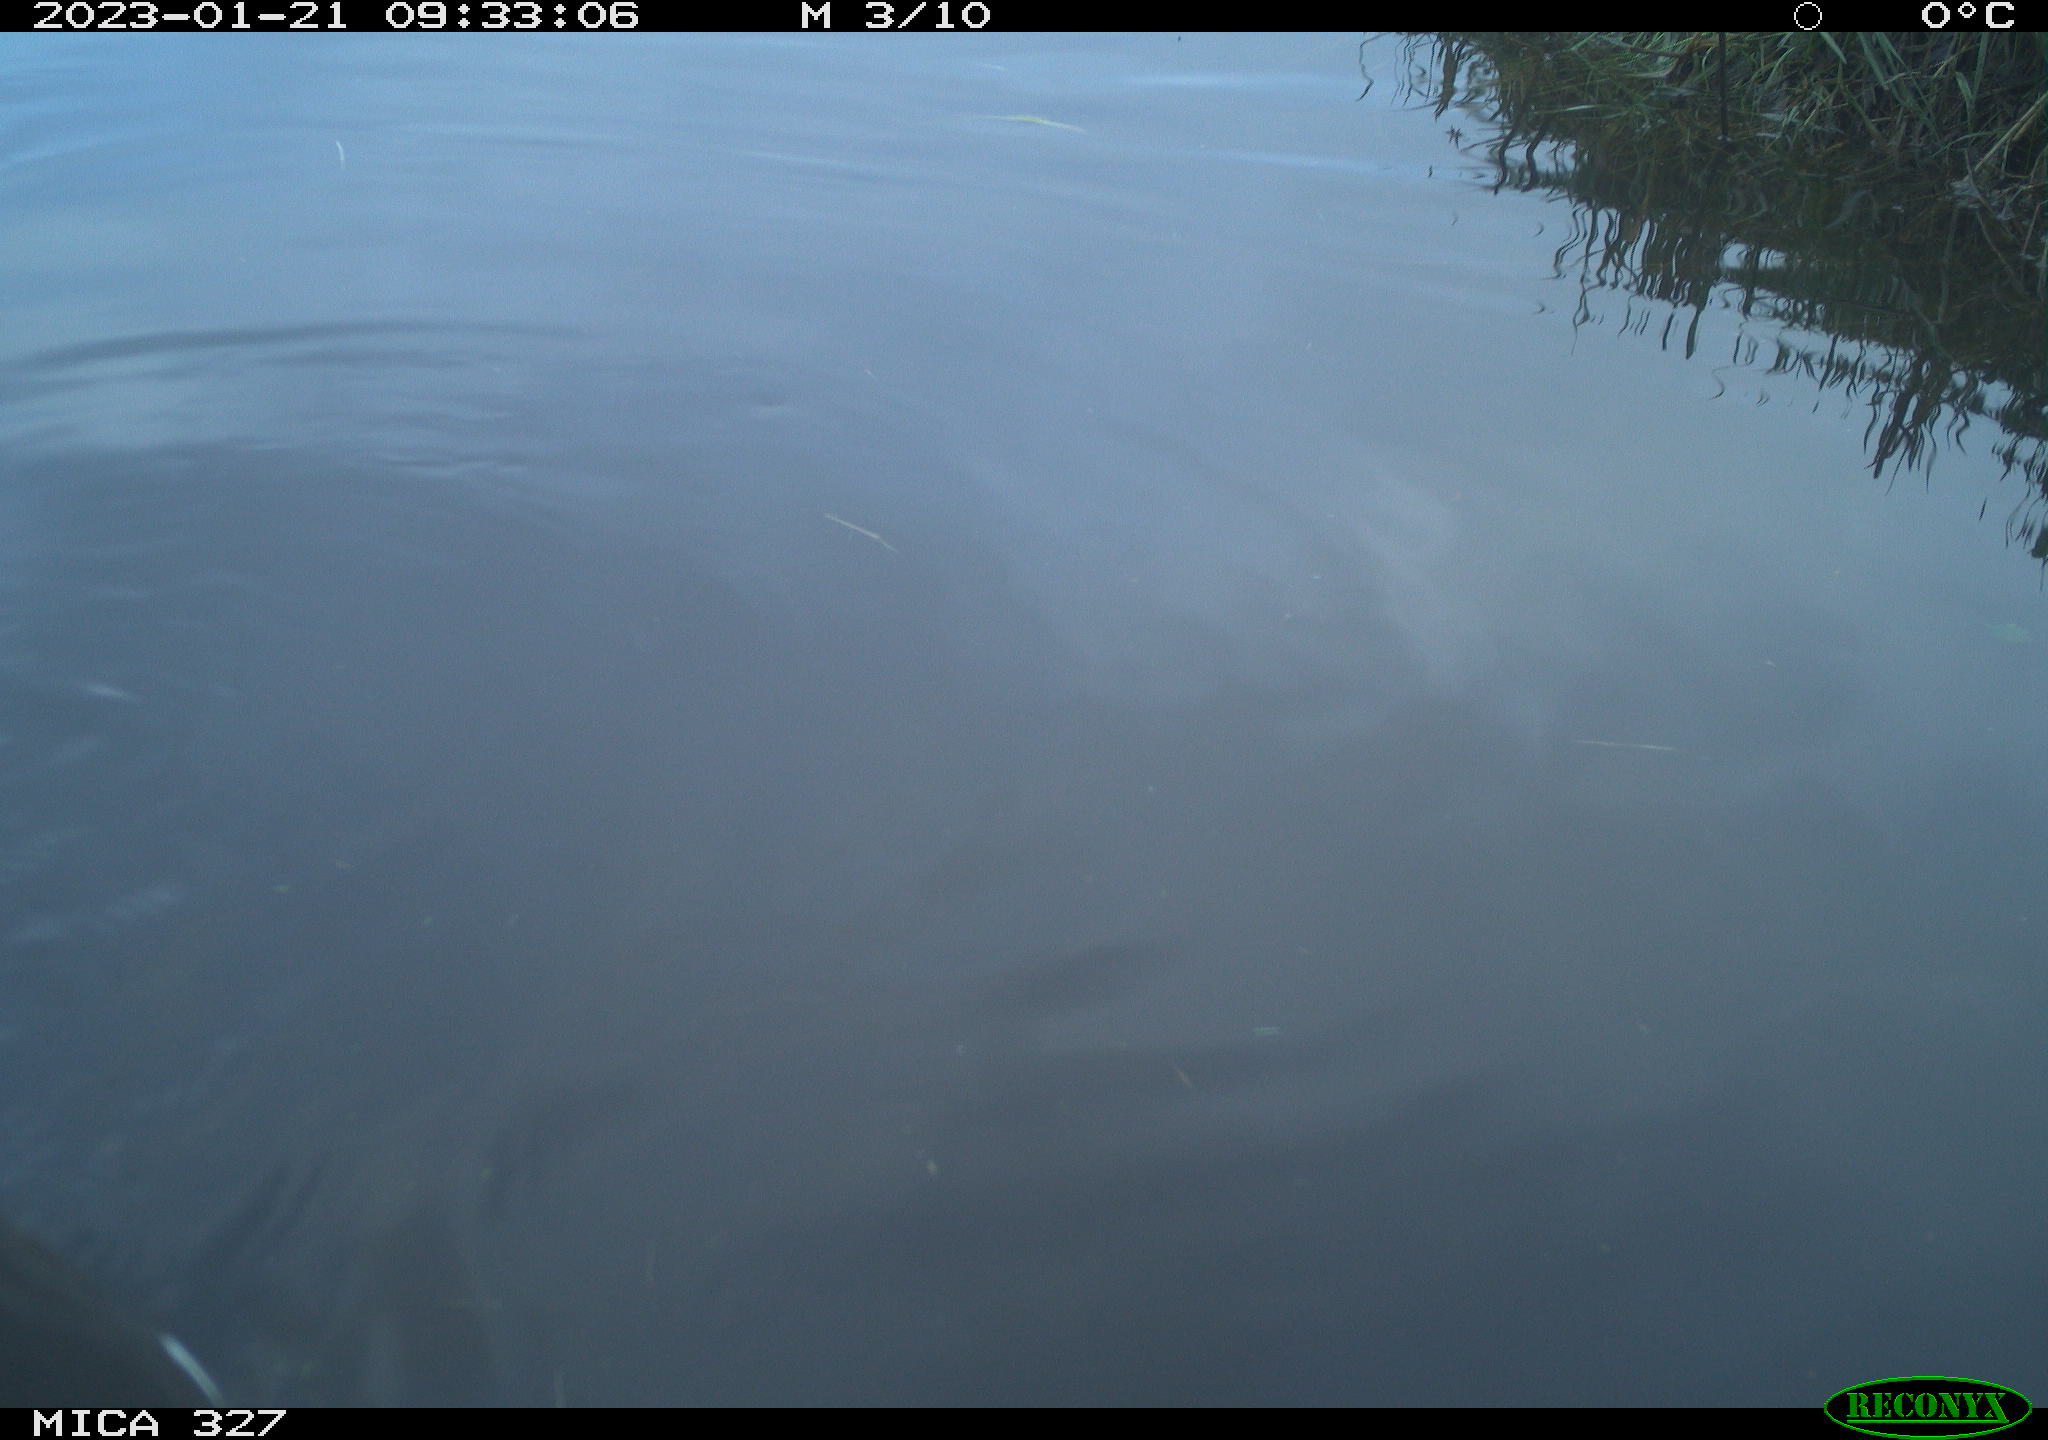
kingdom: Animalia
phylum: Chordata
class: Aves
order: Gruiformes
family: Rallidae
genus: Gallinula
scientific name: Gallinula chloropus
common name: Common moorhen
